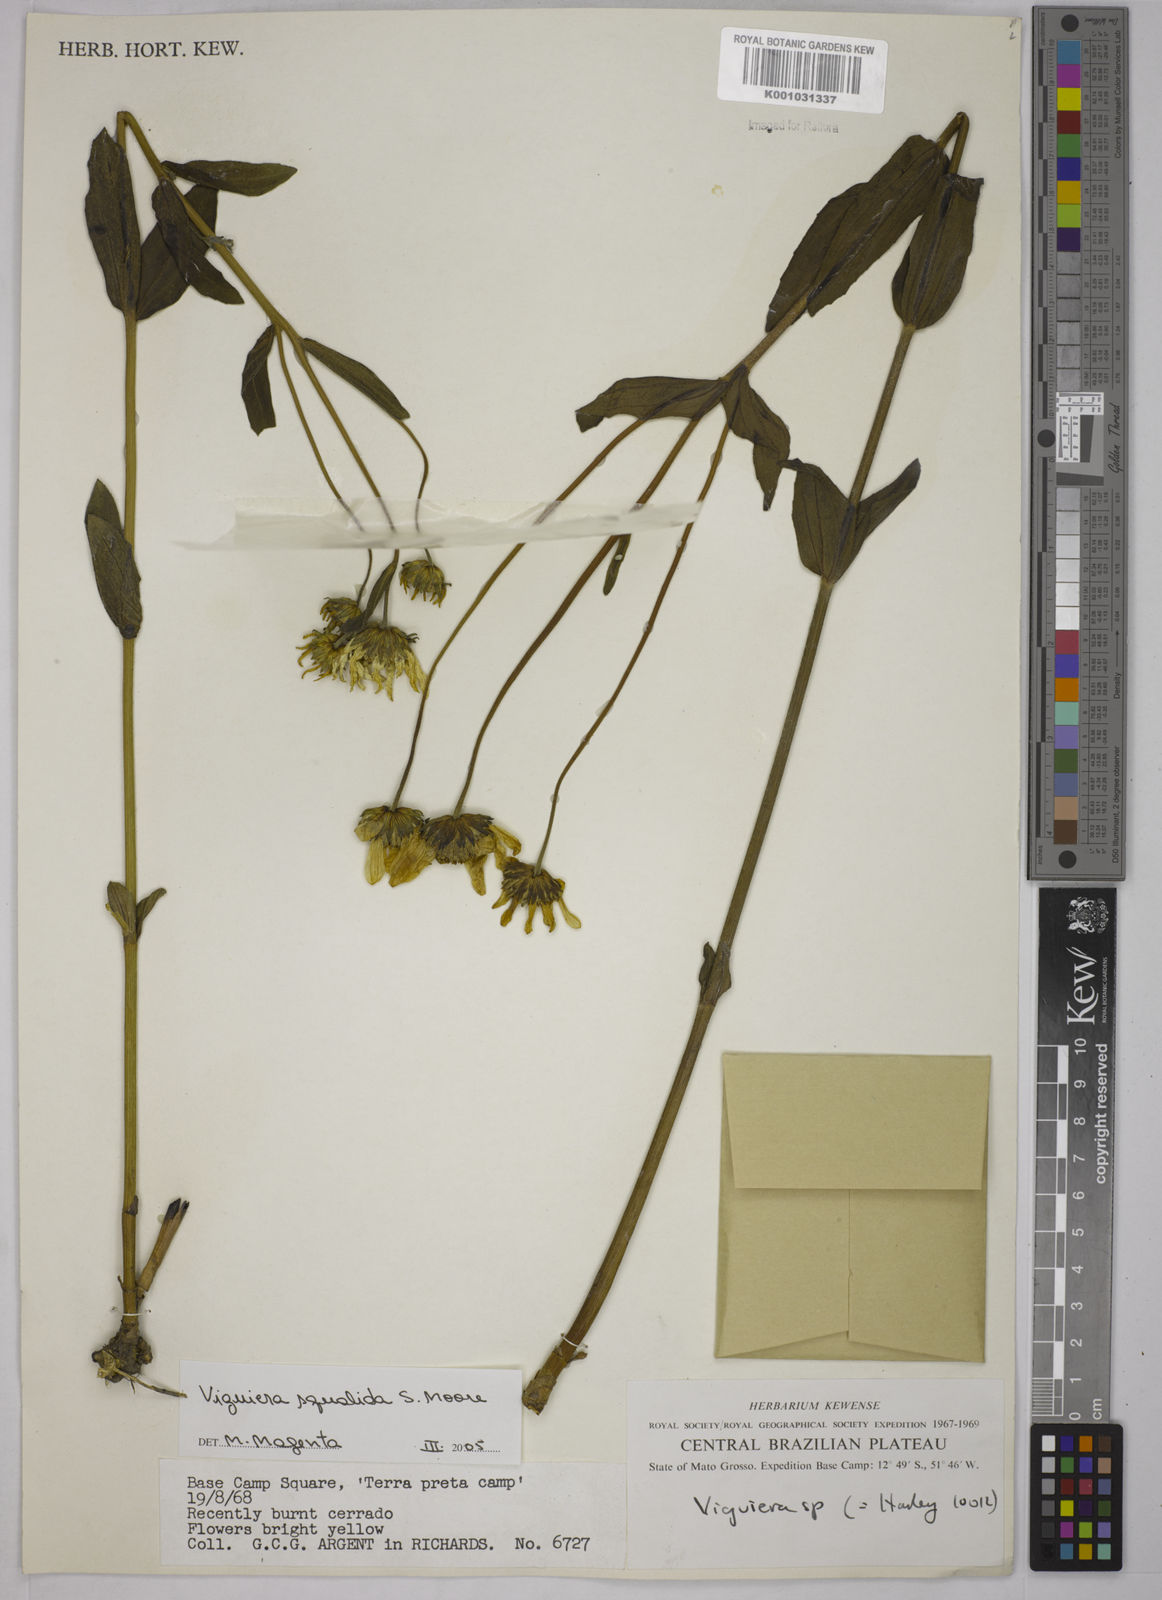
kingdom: Plantae
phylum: Tracheophyta
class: Magnoliopsida
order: Asterales
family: Asteraceae
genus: Aldama
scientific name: Aldama squalida
